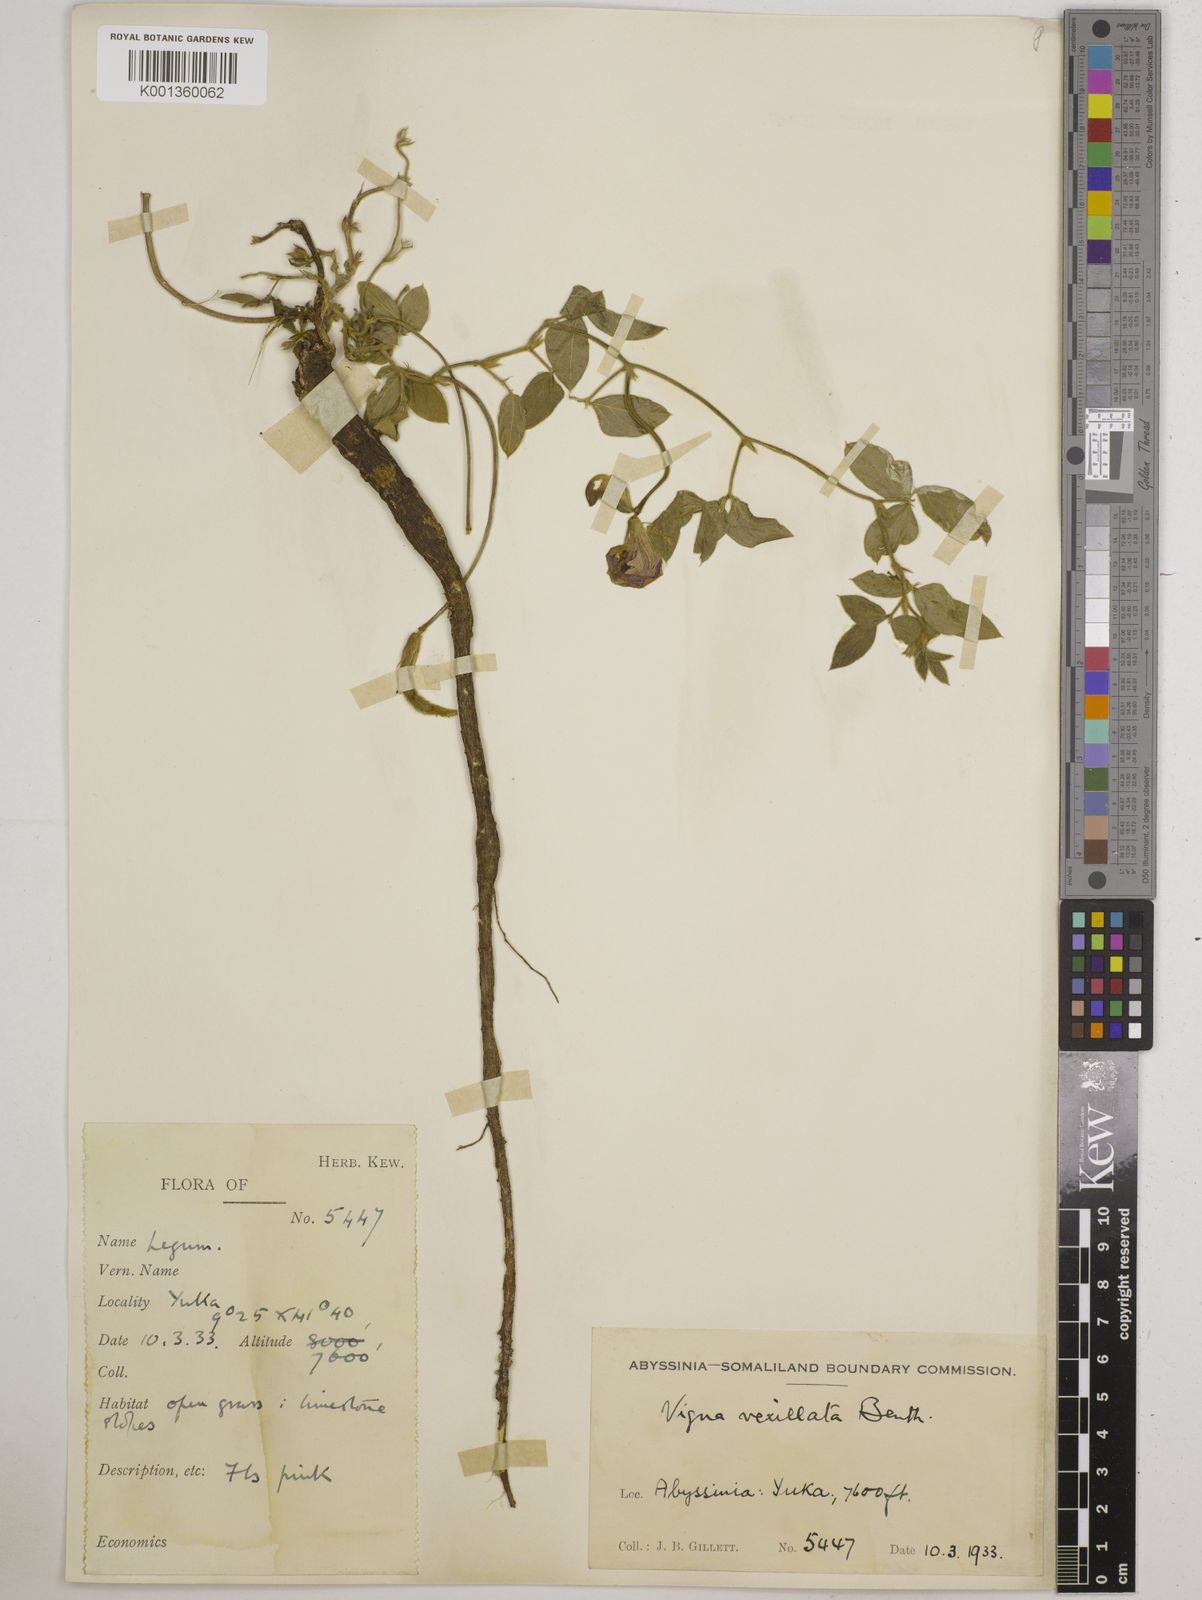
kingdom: Plantae
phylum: Tracheophyta
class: Magnoliopsida
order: Fabales
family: Fabaceae
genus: Vigna
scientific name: Vigna vexillata
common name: Zombi pea
